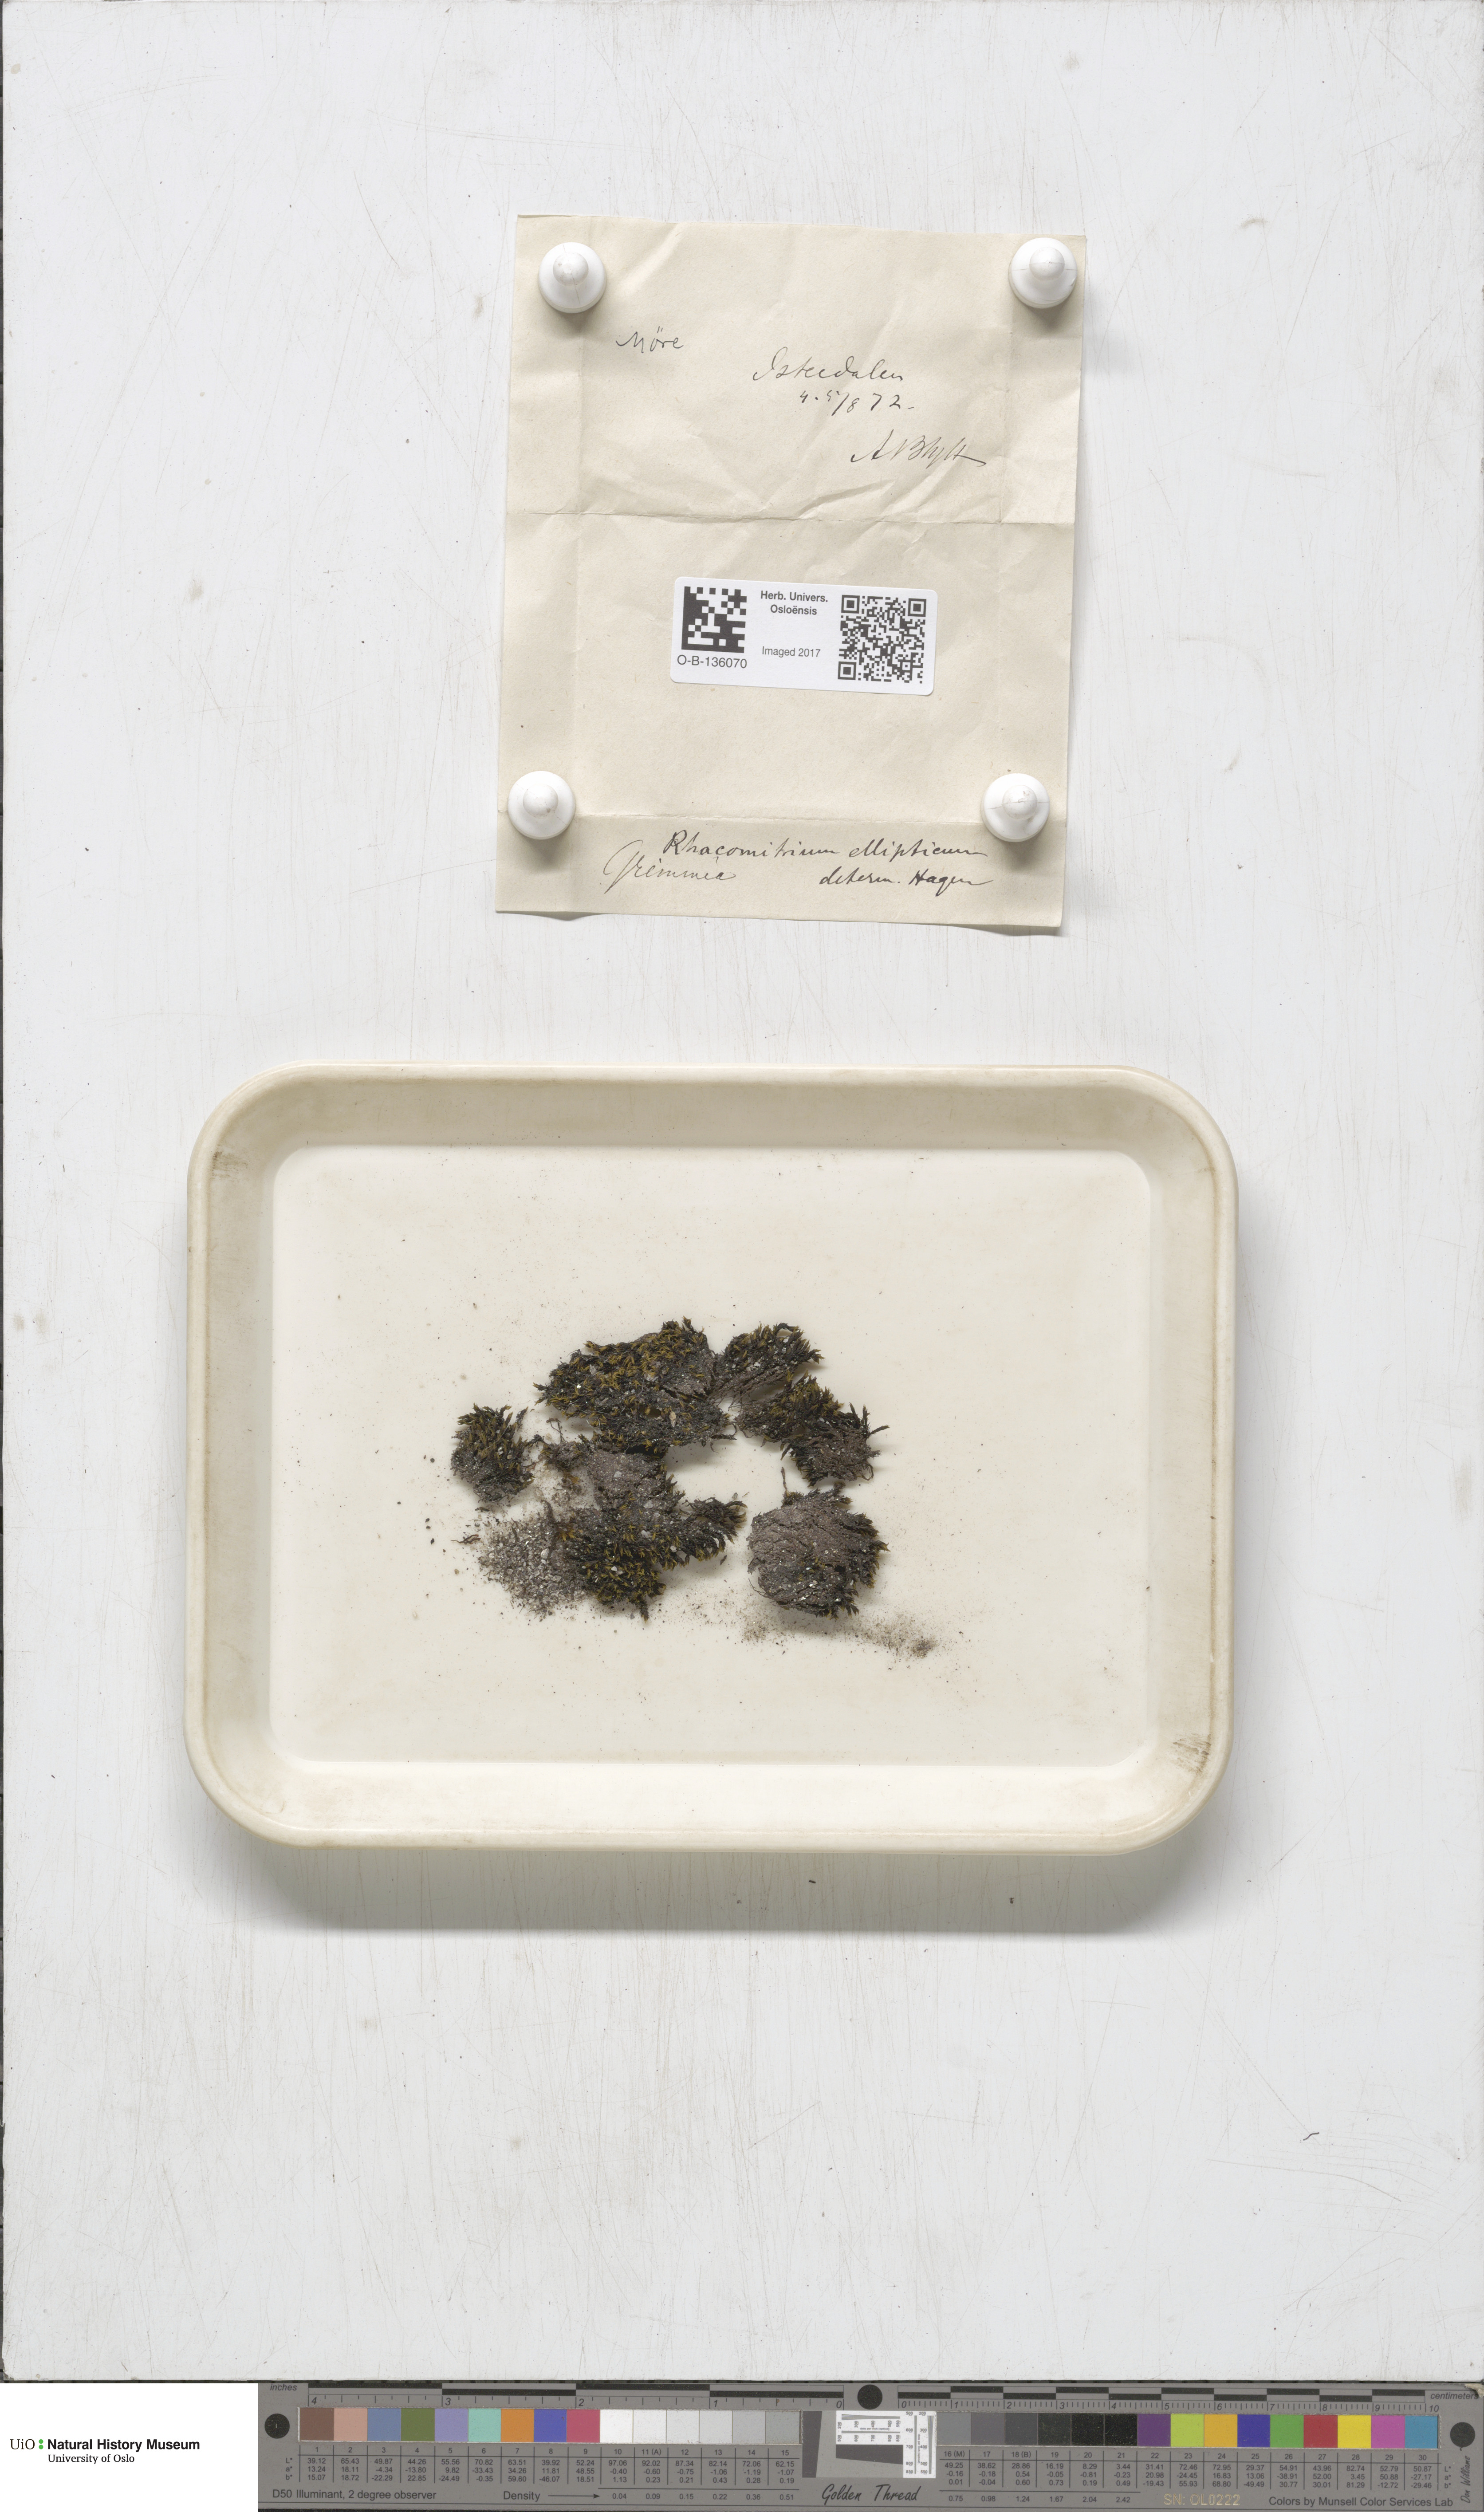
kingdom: Plantae
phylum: Bryophyta
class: Bryopsida
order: Grimmiales
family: Grimmiaceae
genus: Bucklandiella
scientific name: Bucklandiella elliptica
